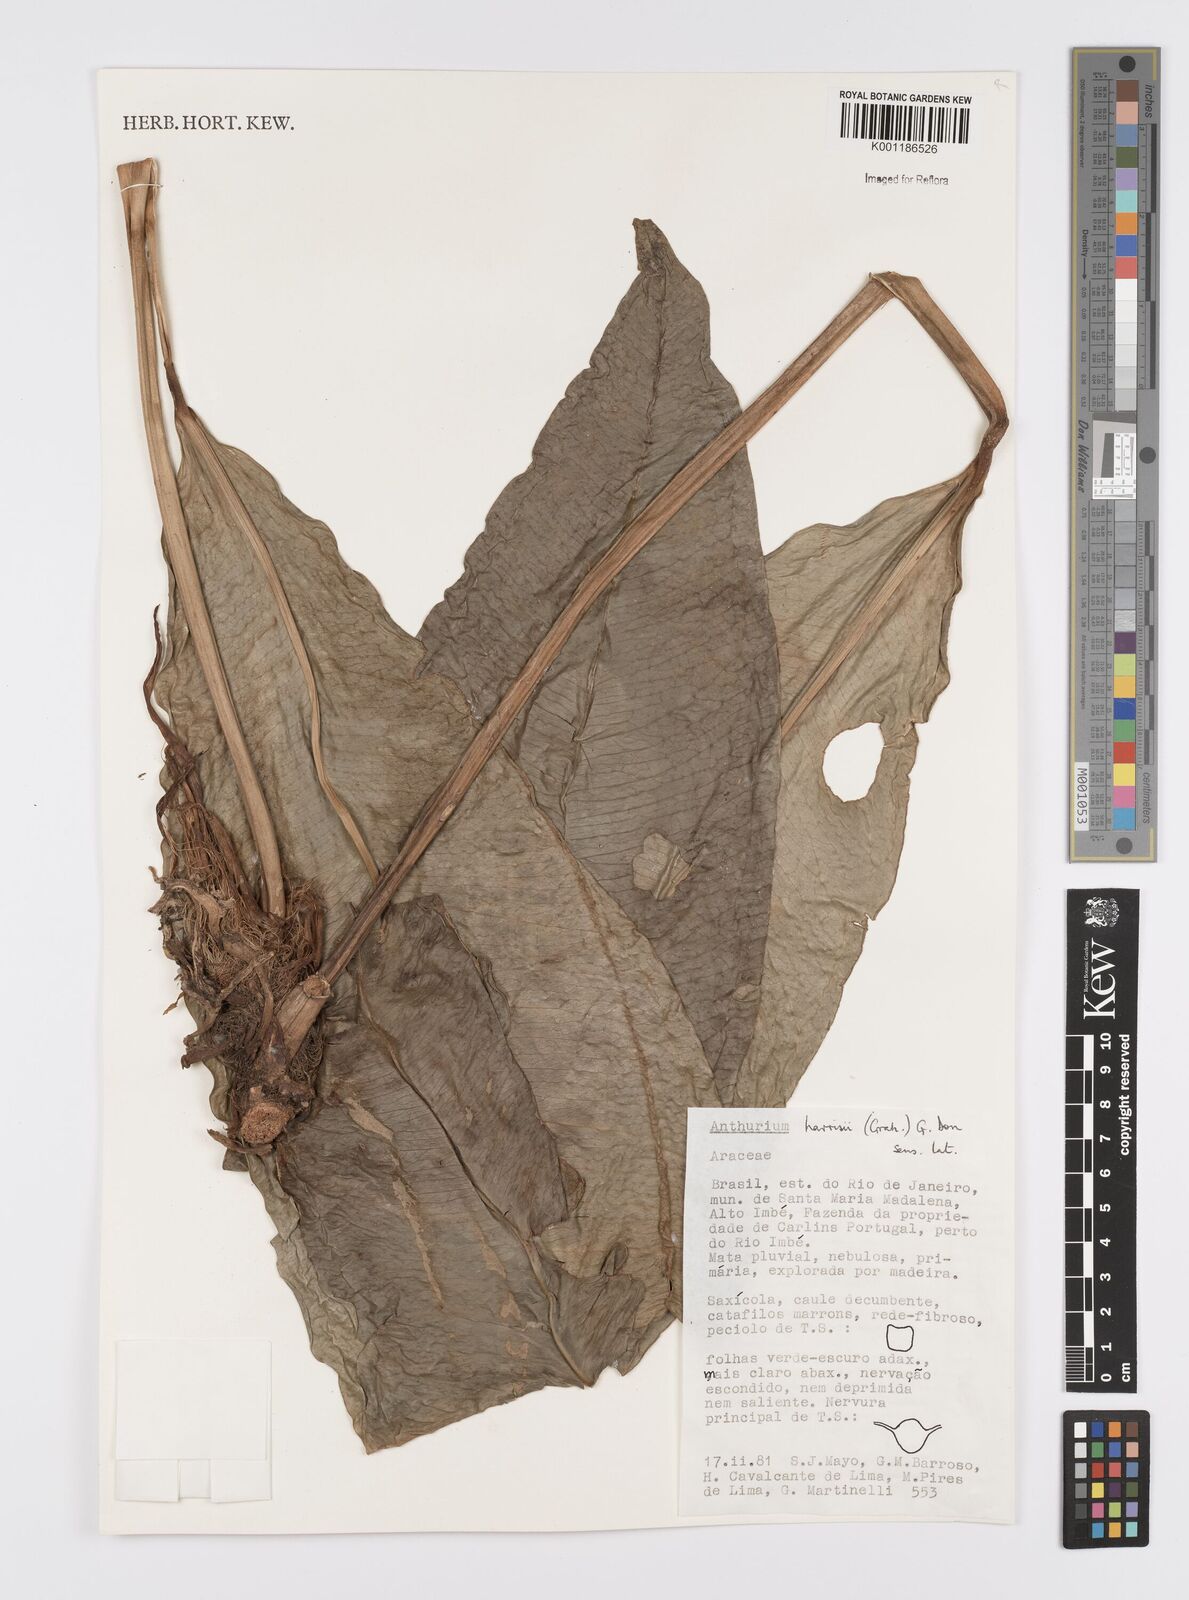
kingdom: Plantae
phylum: Tracheophyta
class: Liliopsida
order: Alismatales
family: Araceae
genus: Anthurium
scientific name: Anthurium harrisii
